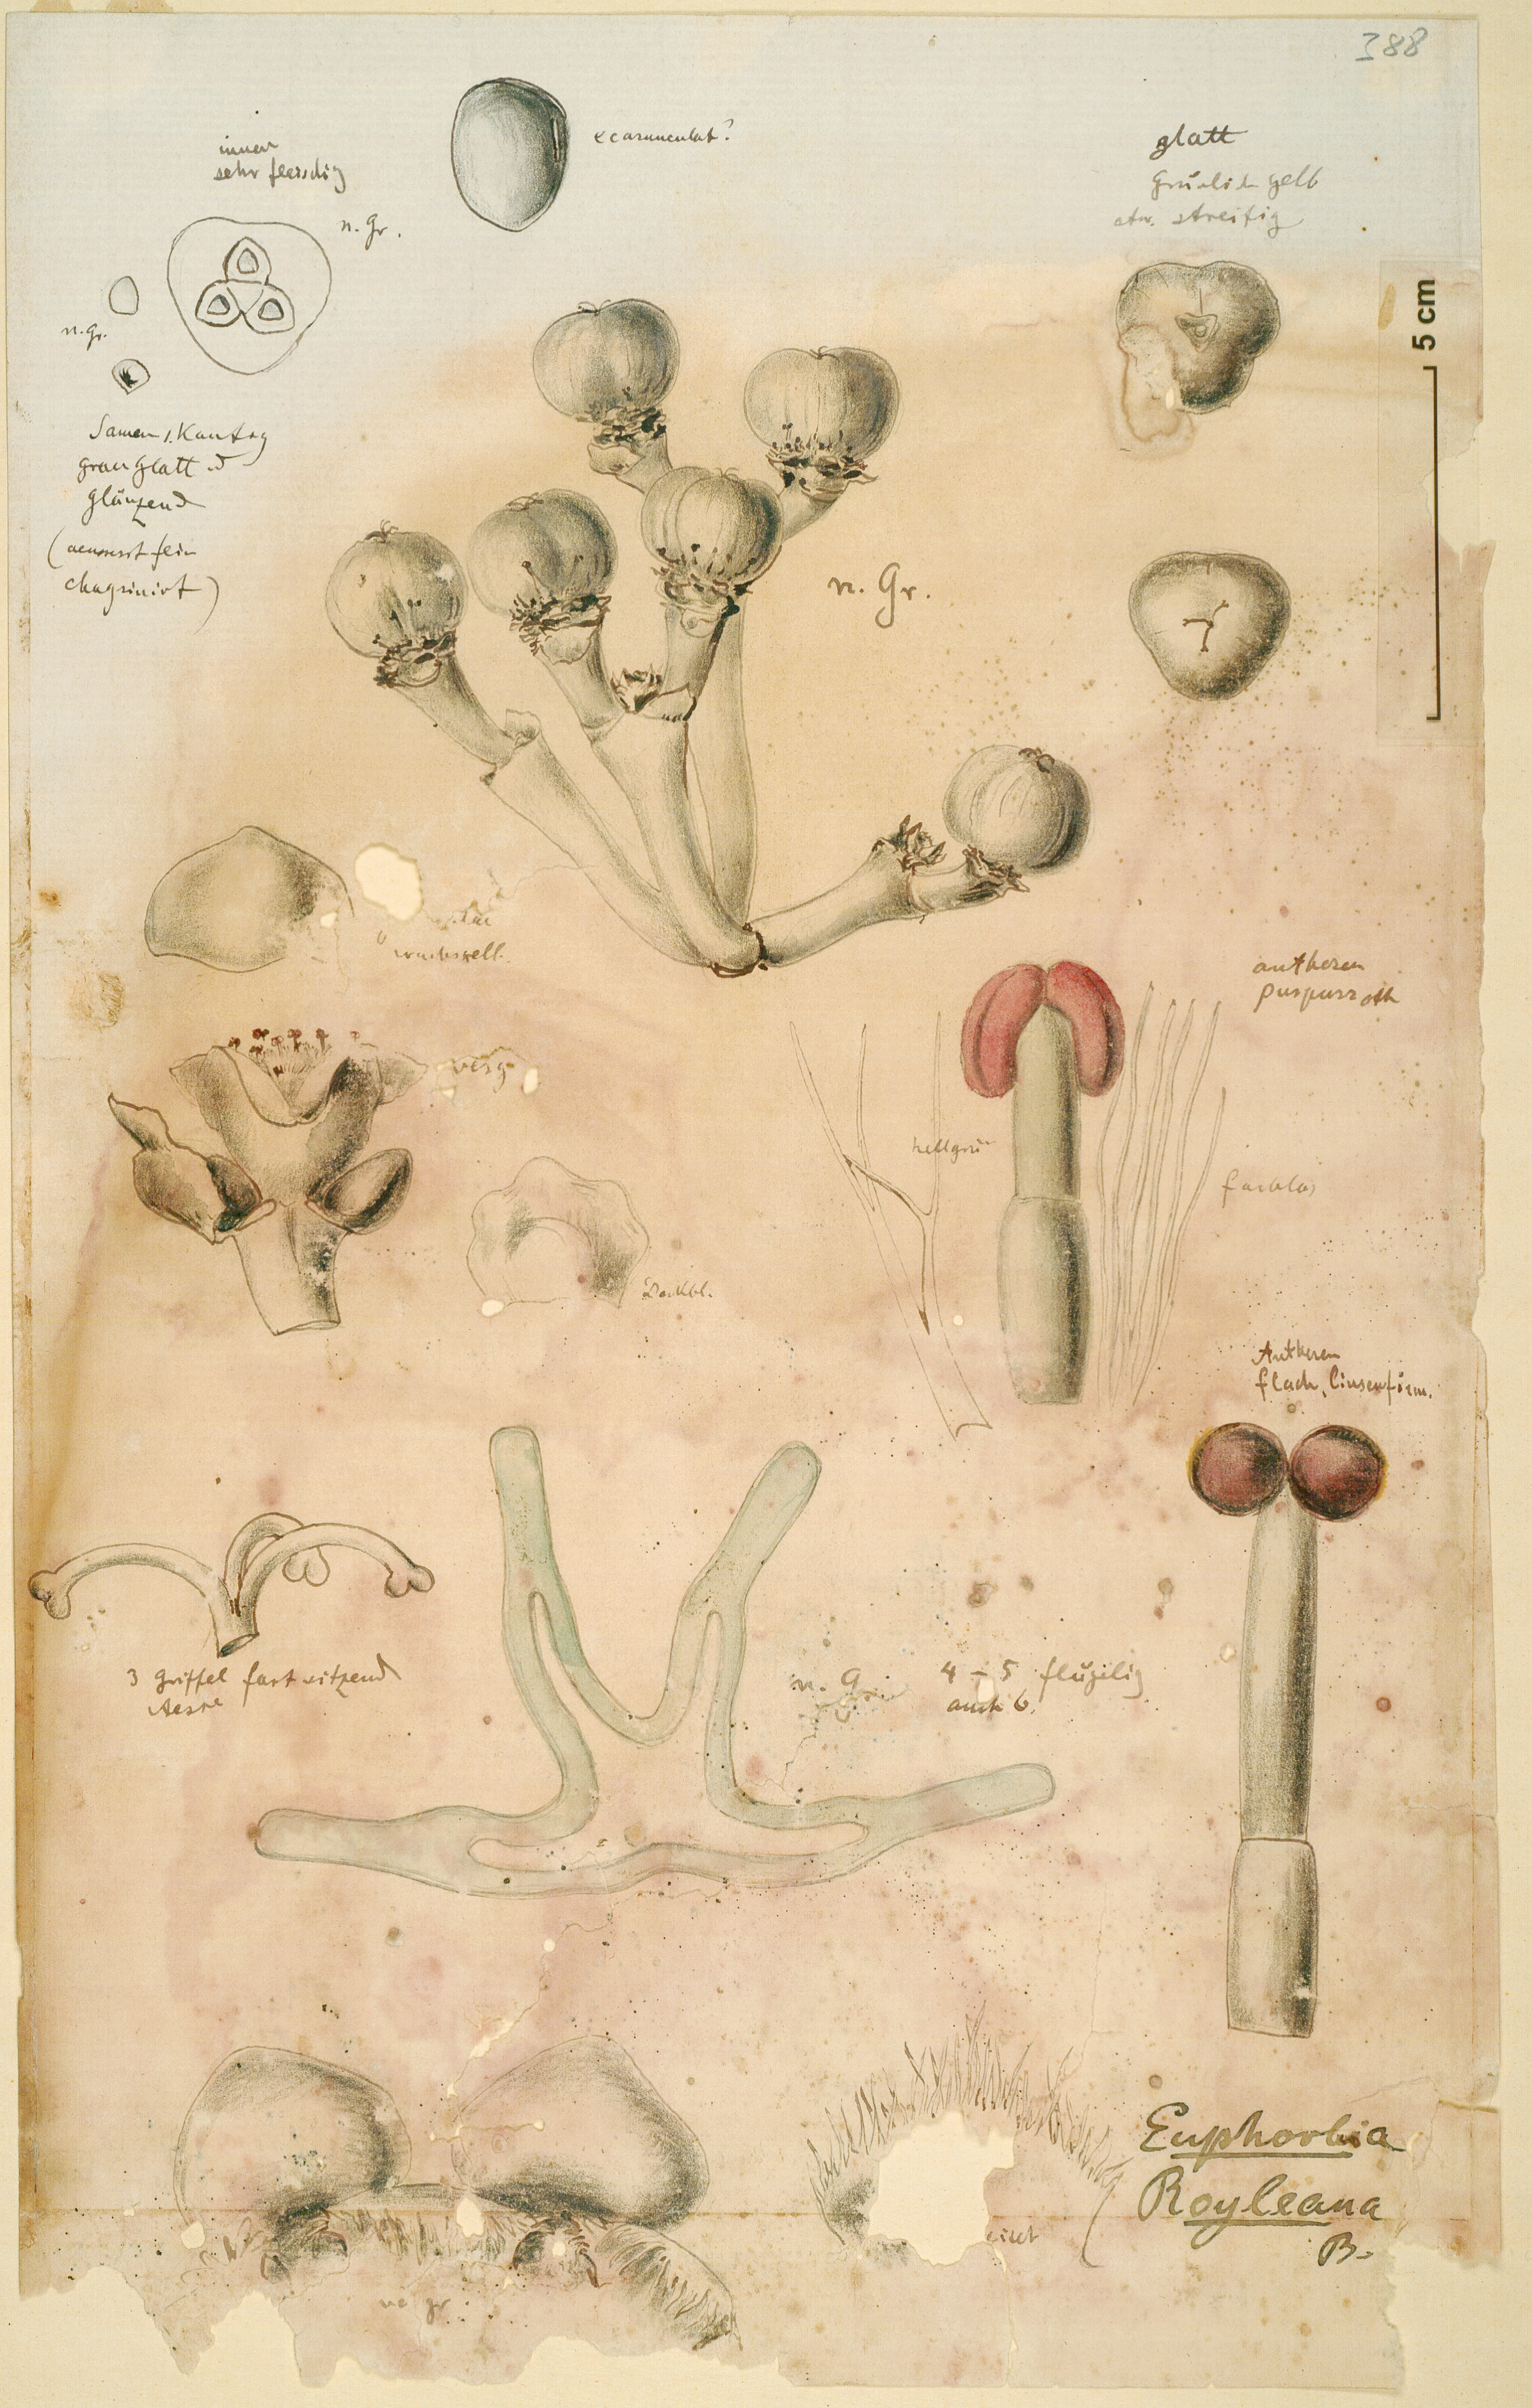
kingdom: Plantae
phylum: Tracheophyta
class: Magnoliopsida
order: Malpighiales
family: Euphorbiaceae
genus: Euphorbia
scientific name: Euphorbia royleana
